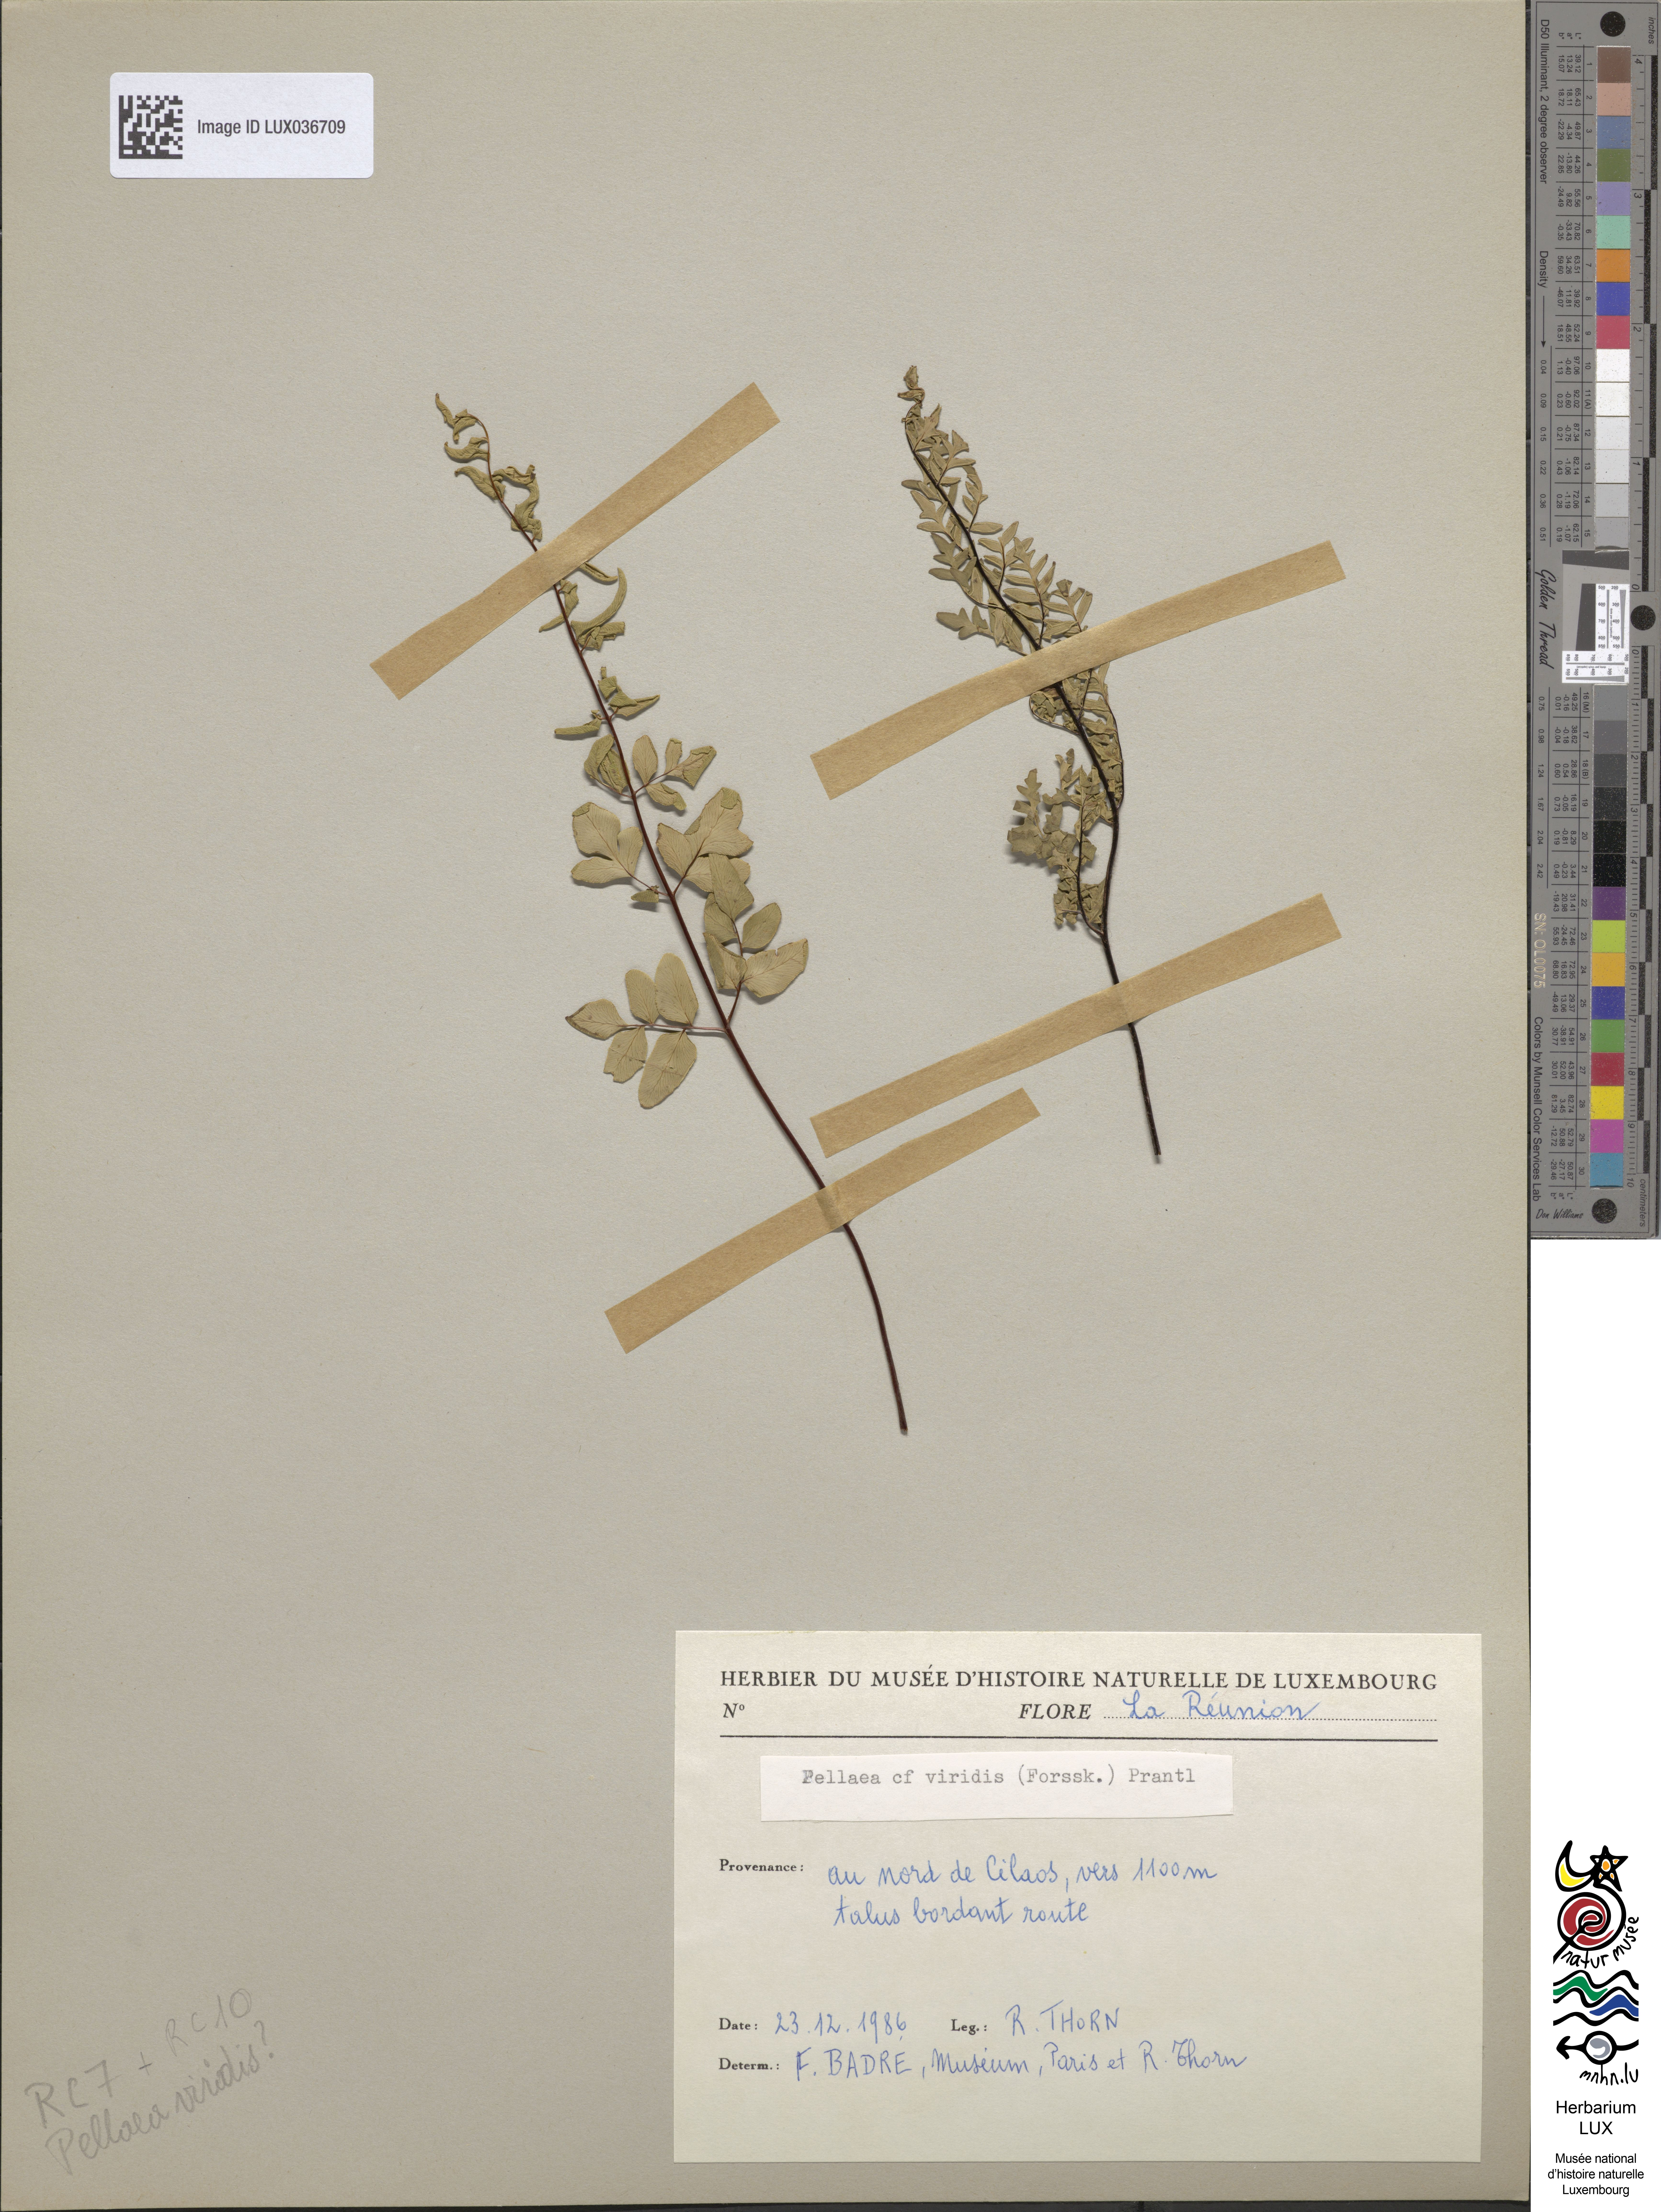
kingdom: Plantae
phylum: Tracheophyta
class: Polypodiopsida
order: Polypodiales
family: Pteridaceae
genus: Cheilanthes
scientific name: Cheilanthes viridis
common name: Green cliffbrake
